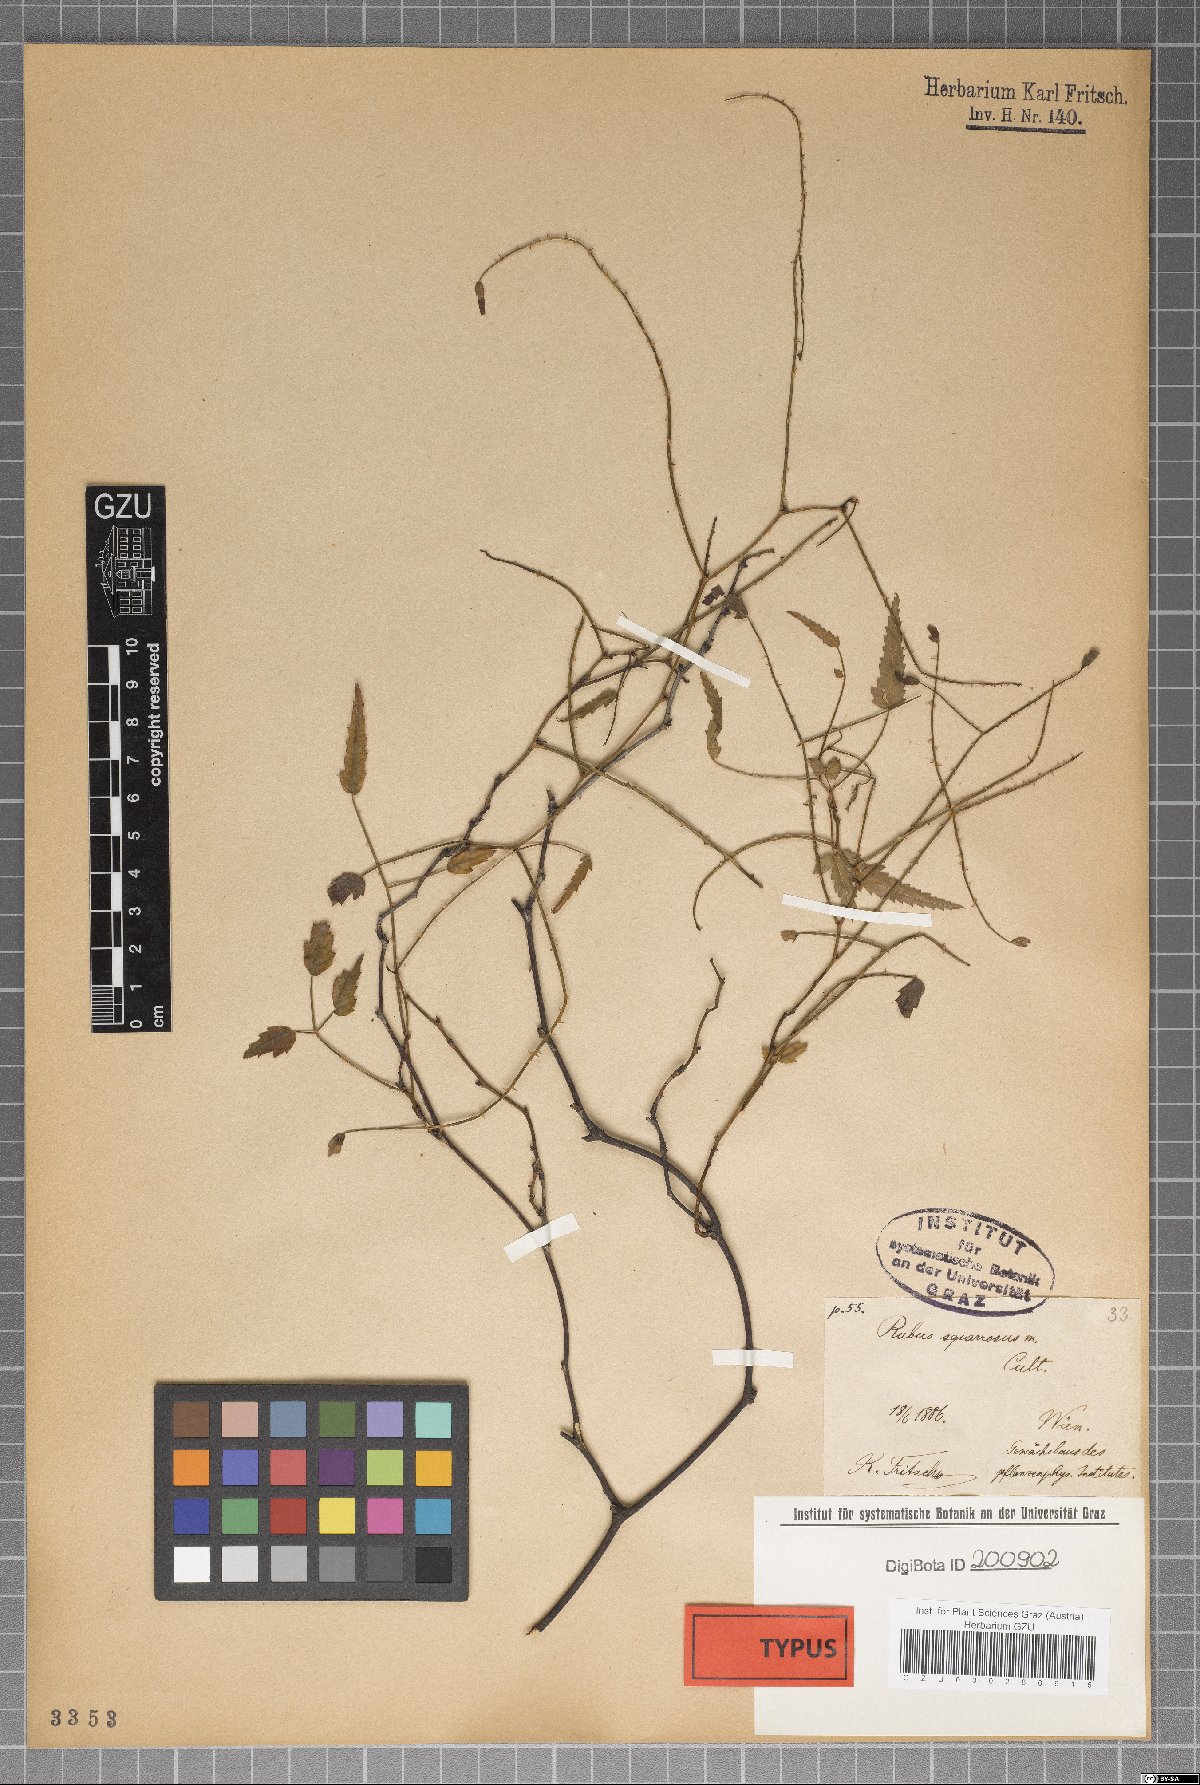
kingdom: Plantae
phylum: Tracheophyta
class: Magnoliopsida
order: Rosales
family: Rosaceae
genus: Rubus
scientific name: Rubus squarrosus
